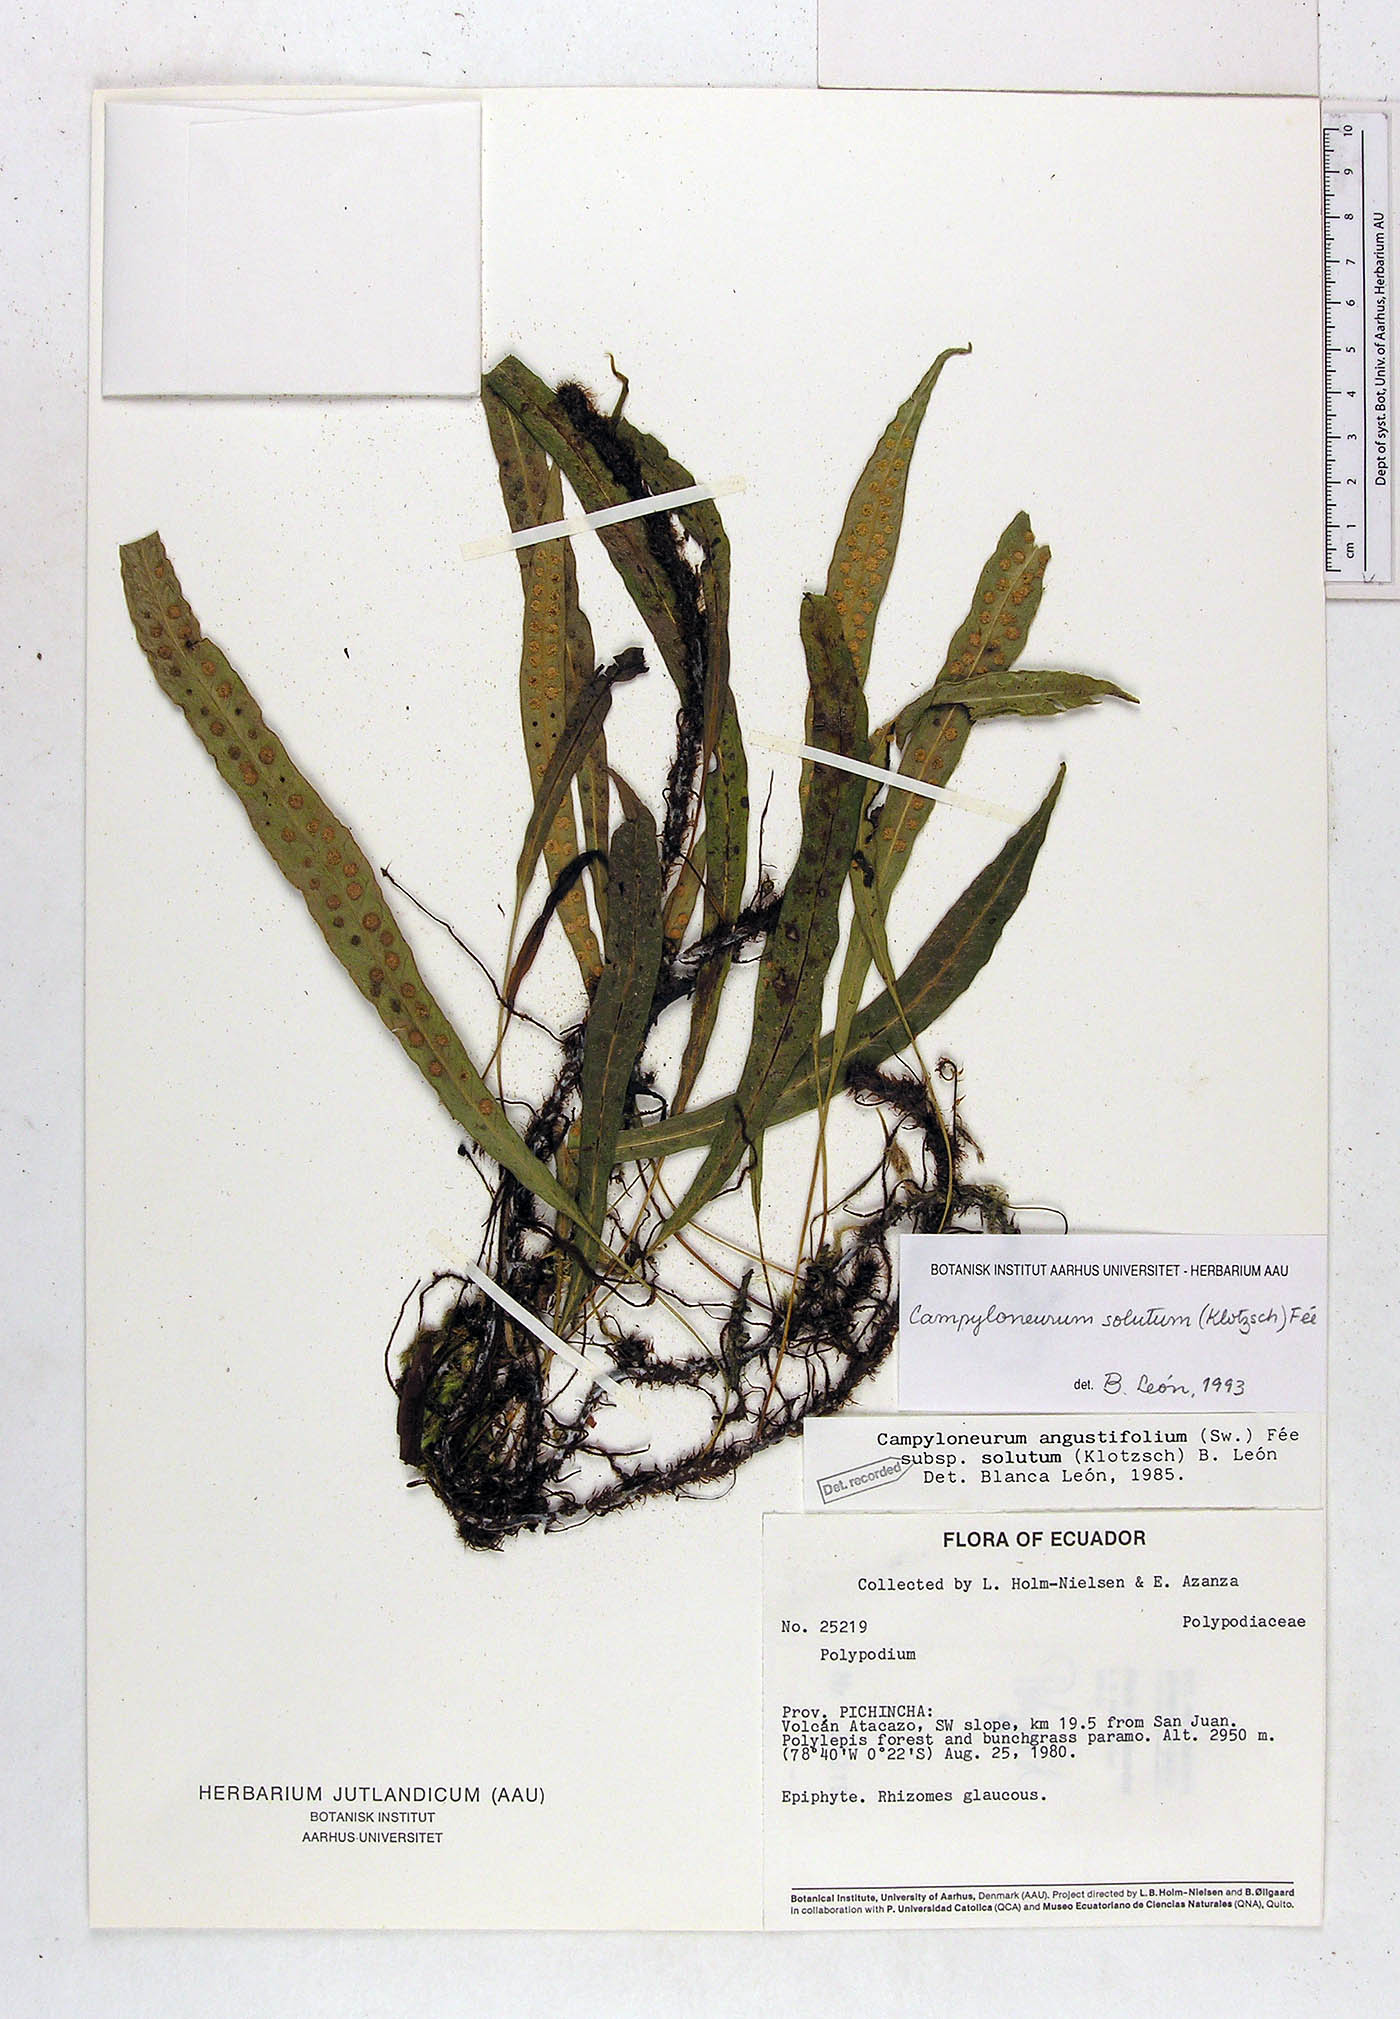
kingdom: Plantae
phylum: Tracheophyta
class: Polypodiopsida
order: Polypodiales
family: Polypodiaceae
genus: Campyloneurum
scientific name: Campyloneurum solutum
